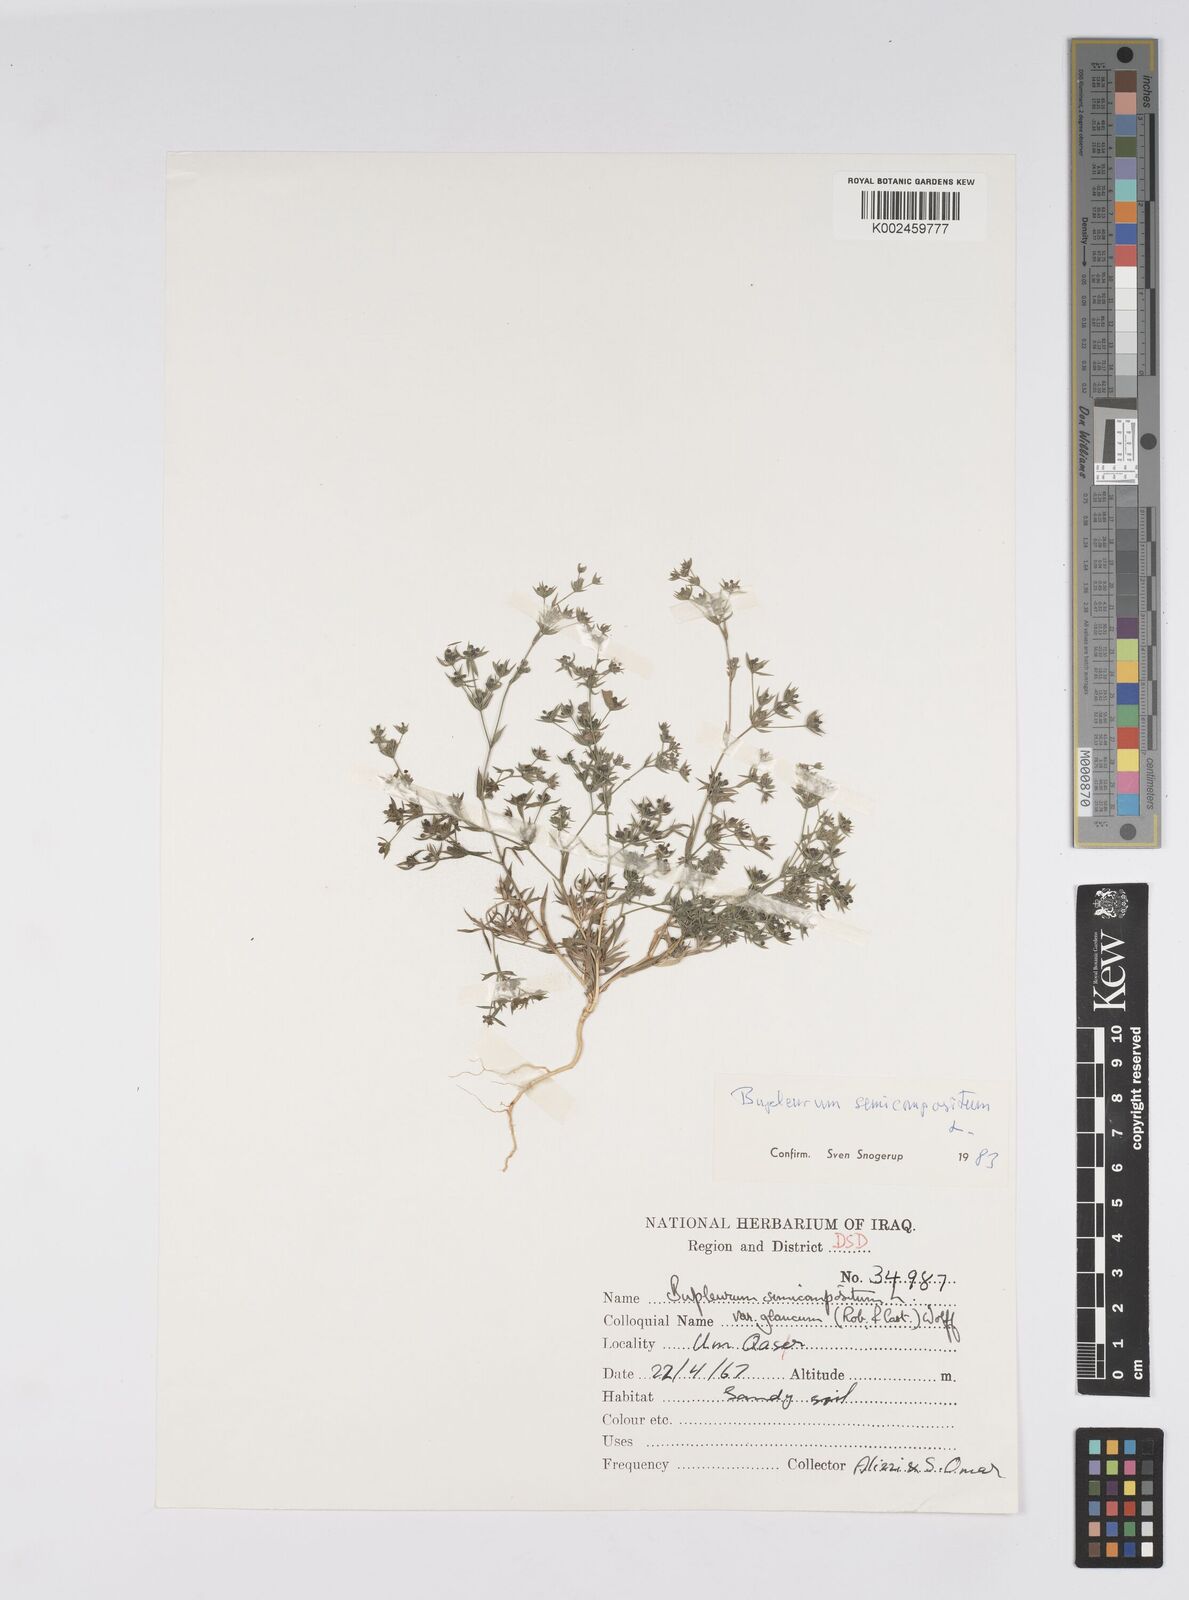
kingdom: Plantae
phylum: Tracheophyta
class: Magnoliopsida
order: Apiales
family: Apiaceae
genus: Bupleurum
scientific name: Bupleurum semicompositum
